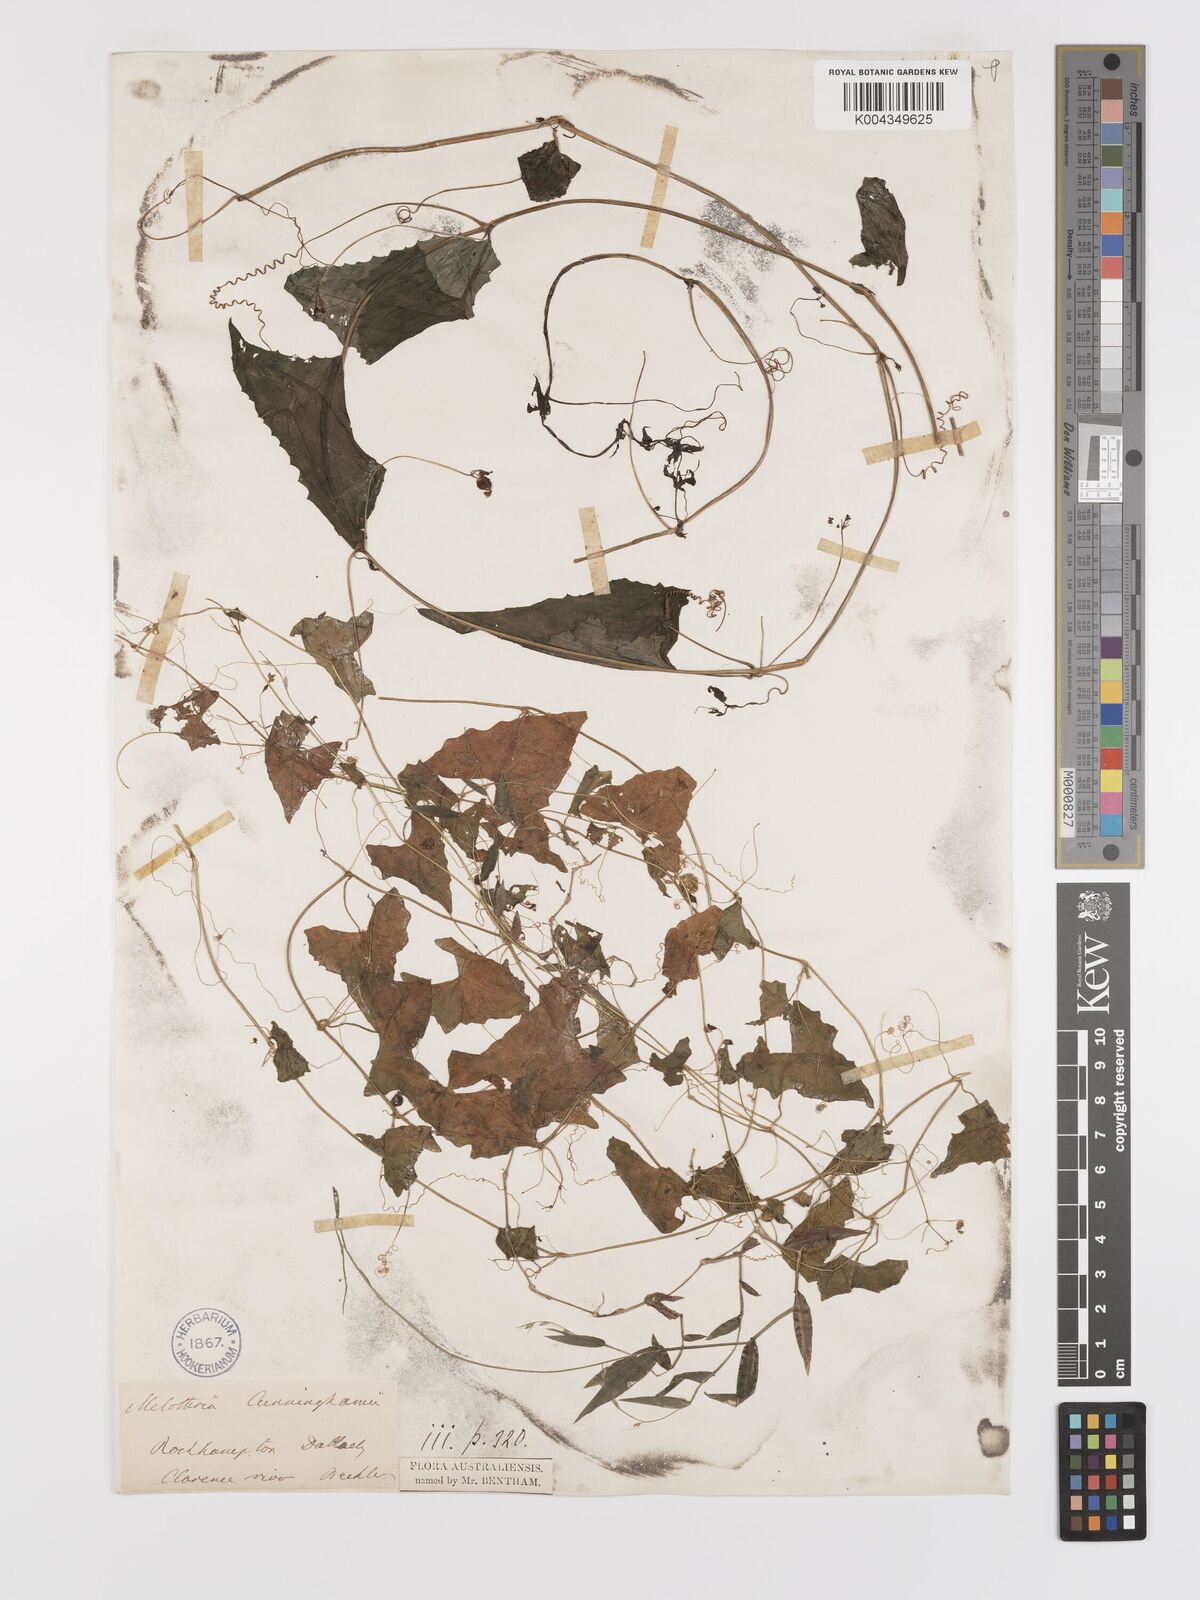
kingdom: Plantae
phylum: Tracheophyta
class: Magnoliopsida
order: Cucurbitales
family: Cucurbitaceae
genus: Zehneria
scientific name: Zehneria cunninghamii
